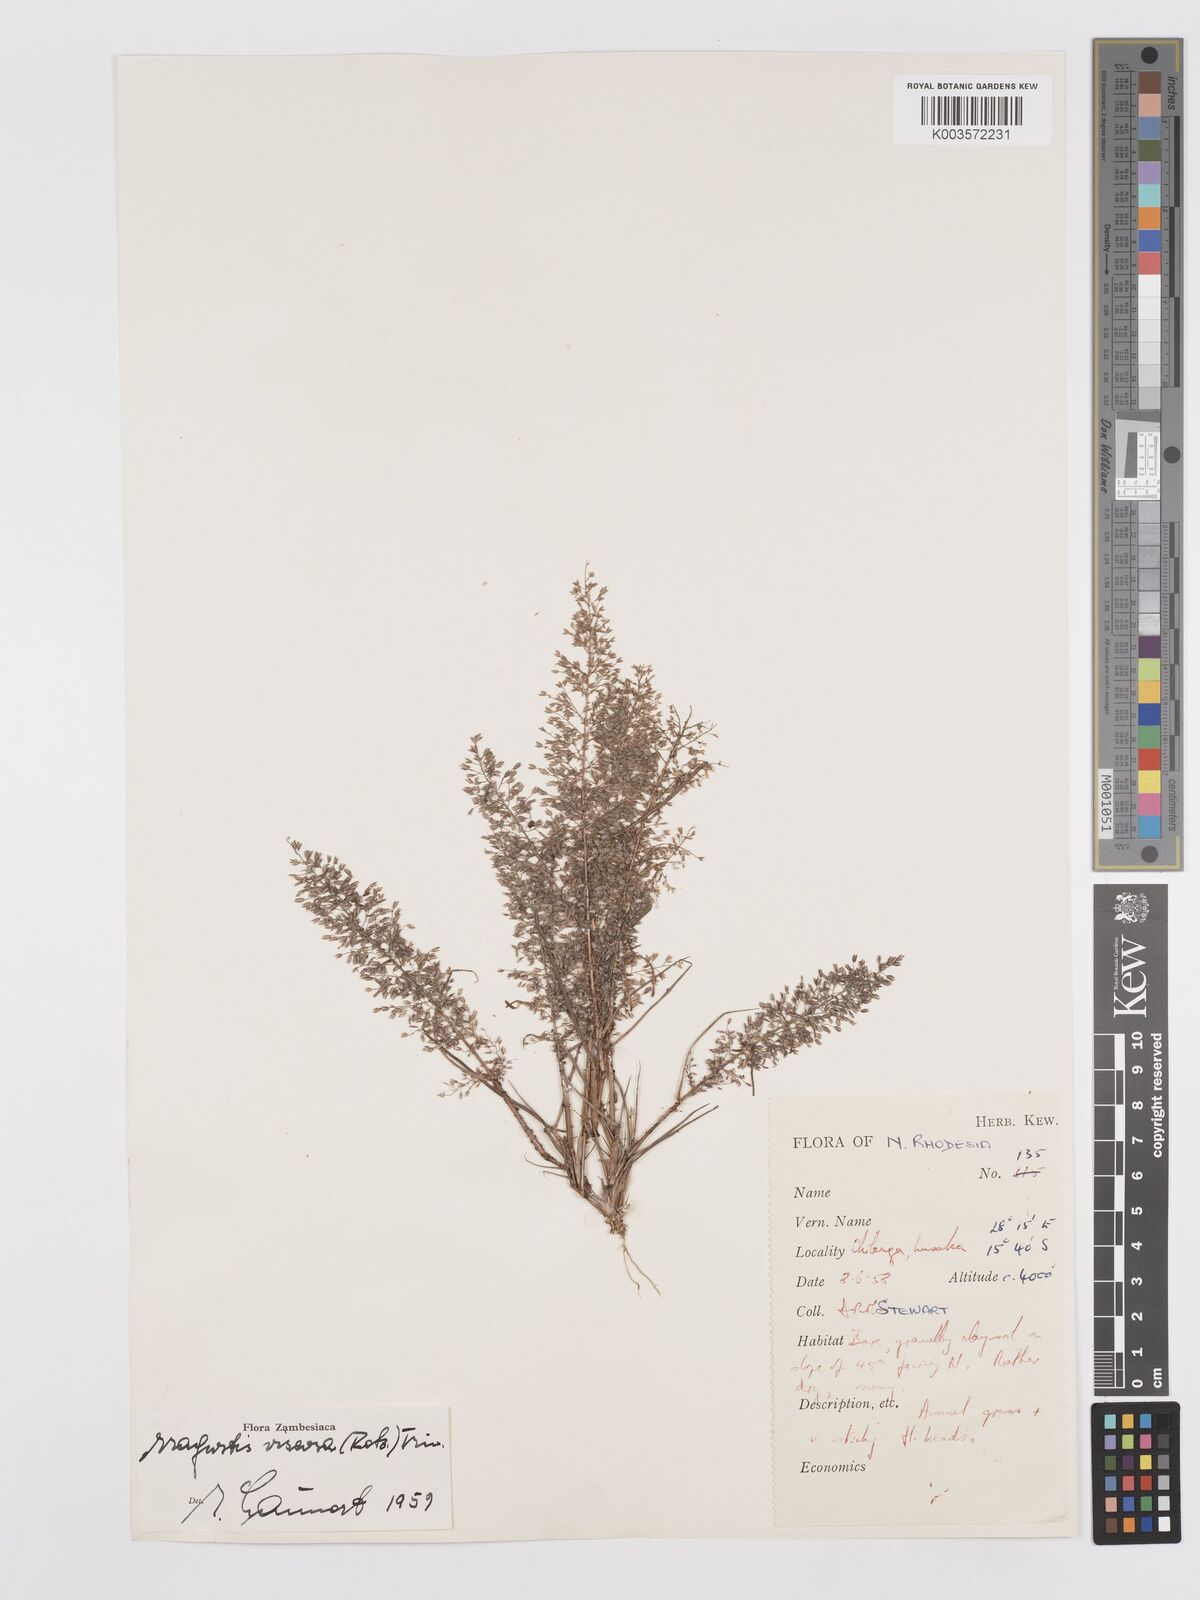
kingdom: Plantae
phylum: Tracheophyta
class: Liliopsida
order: Poales
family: Poaceae
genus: Eragrostis
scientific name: Eragrostis
